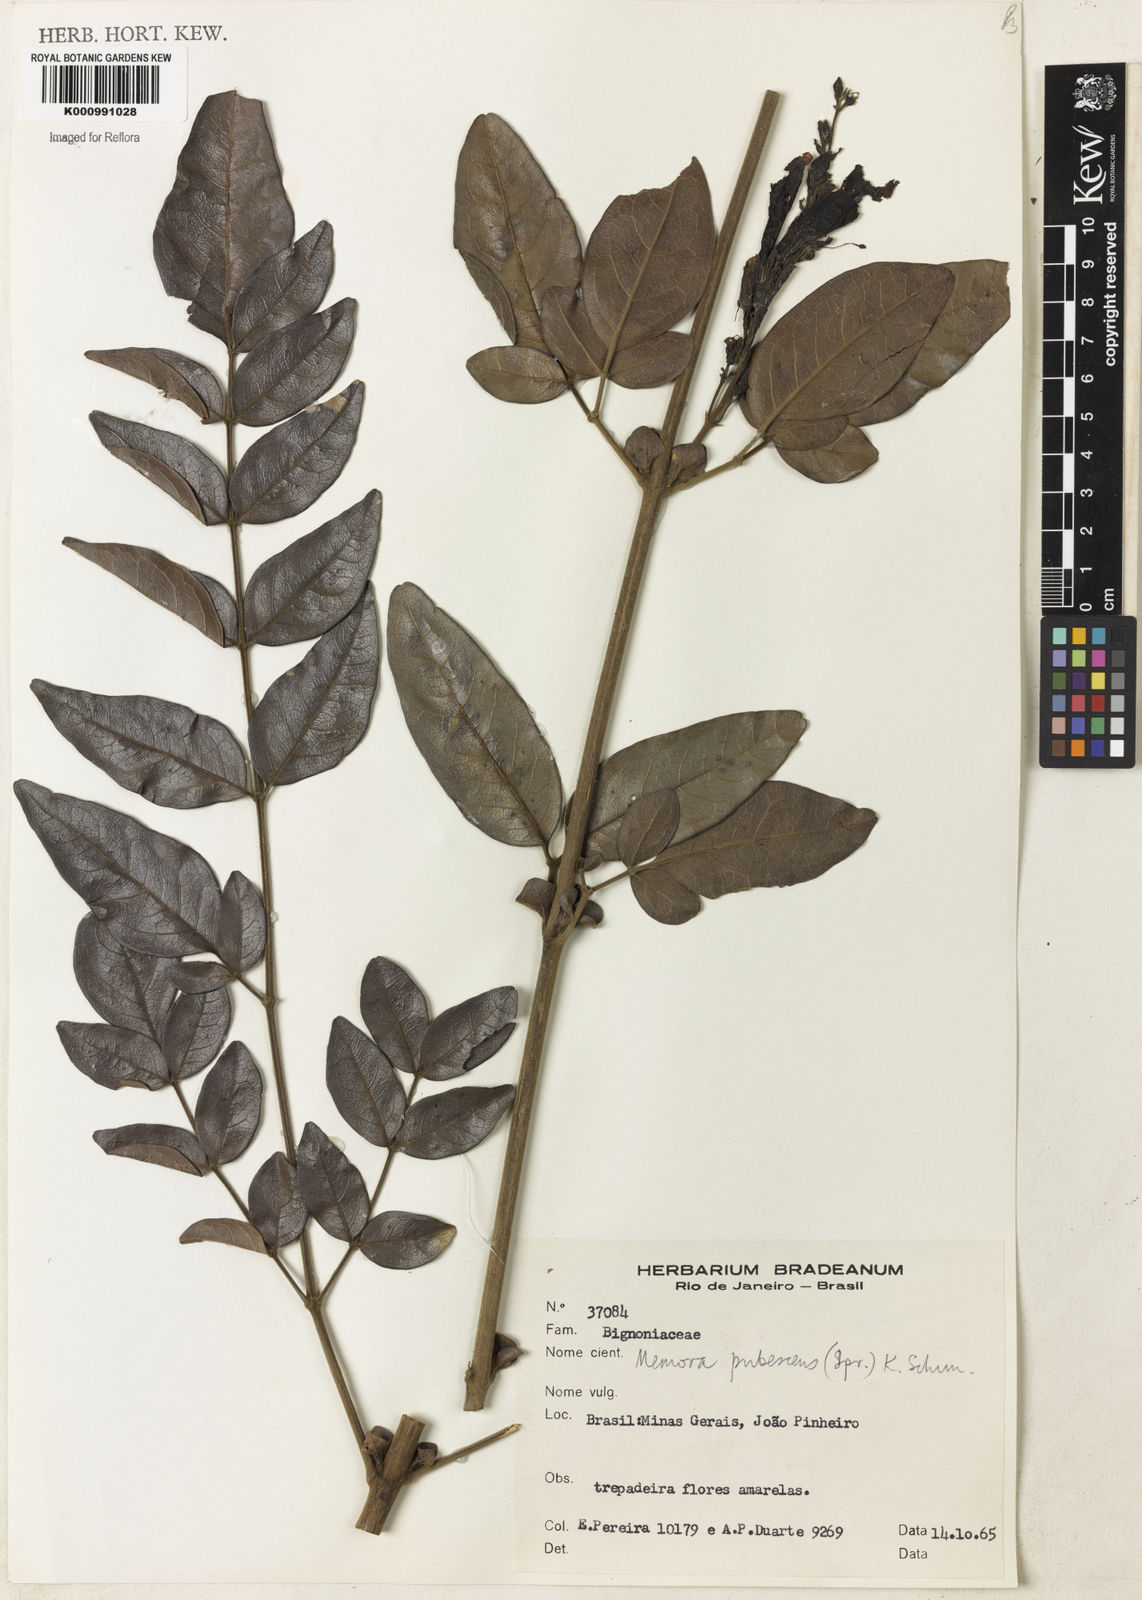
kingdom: Plantae
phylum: Tracheophyta
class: Magnoliopsida
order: Lamiales
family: Bignoniaceae
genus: Adenocalymma
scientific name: Adenocalymma pubescens
